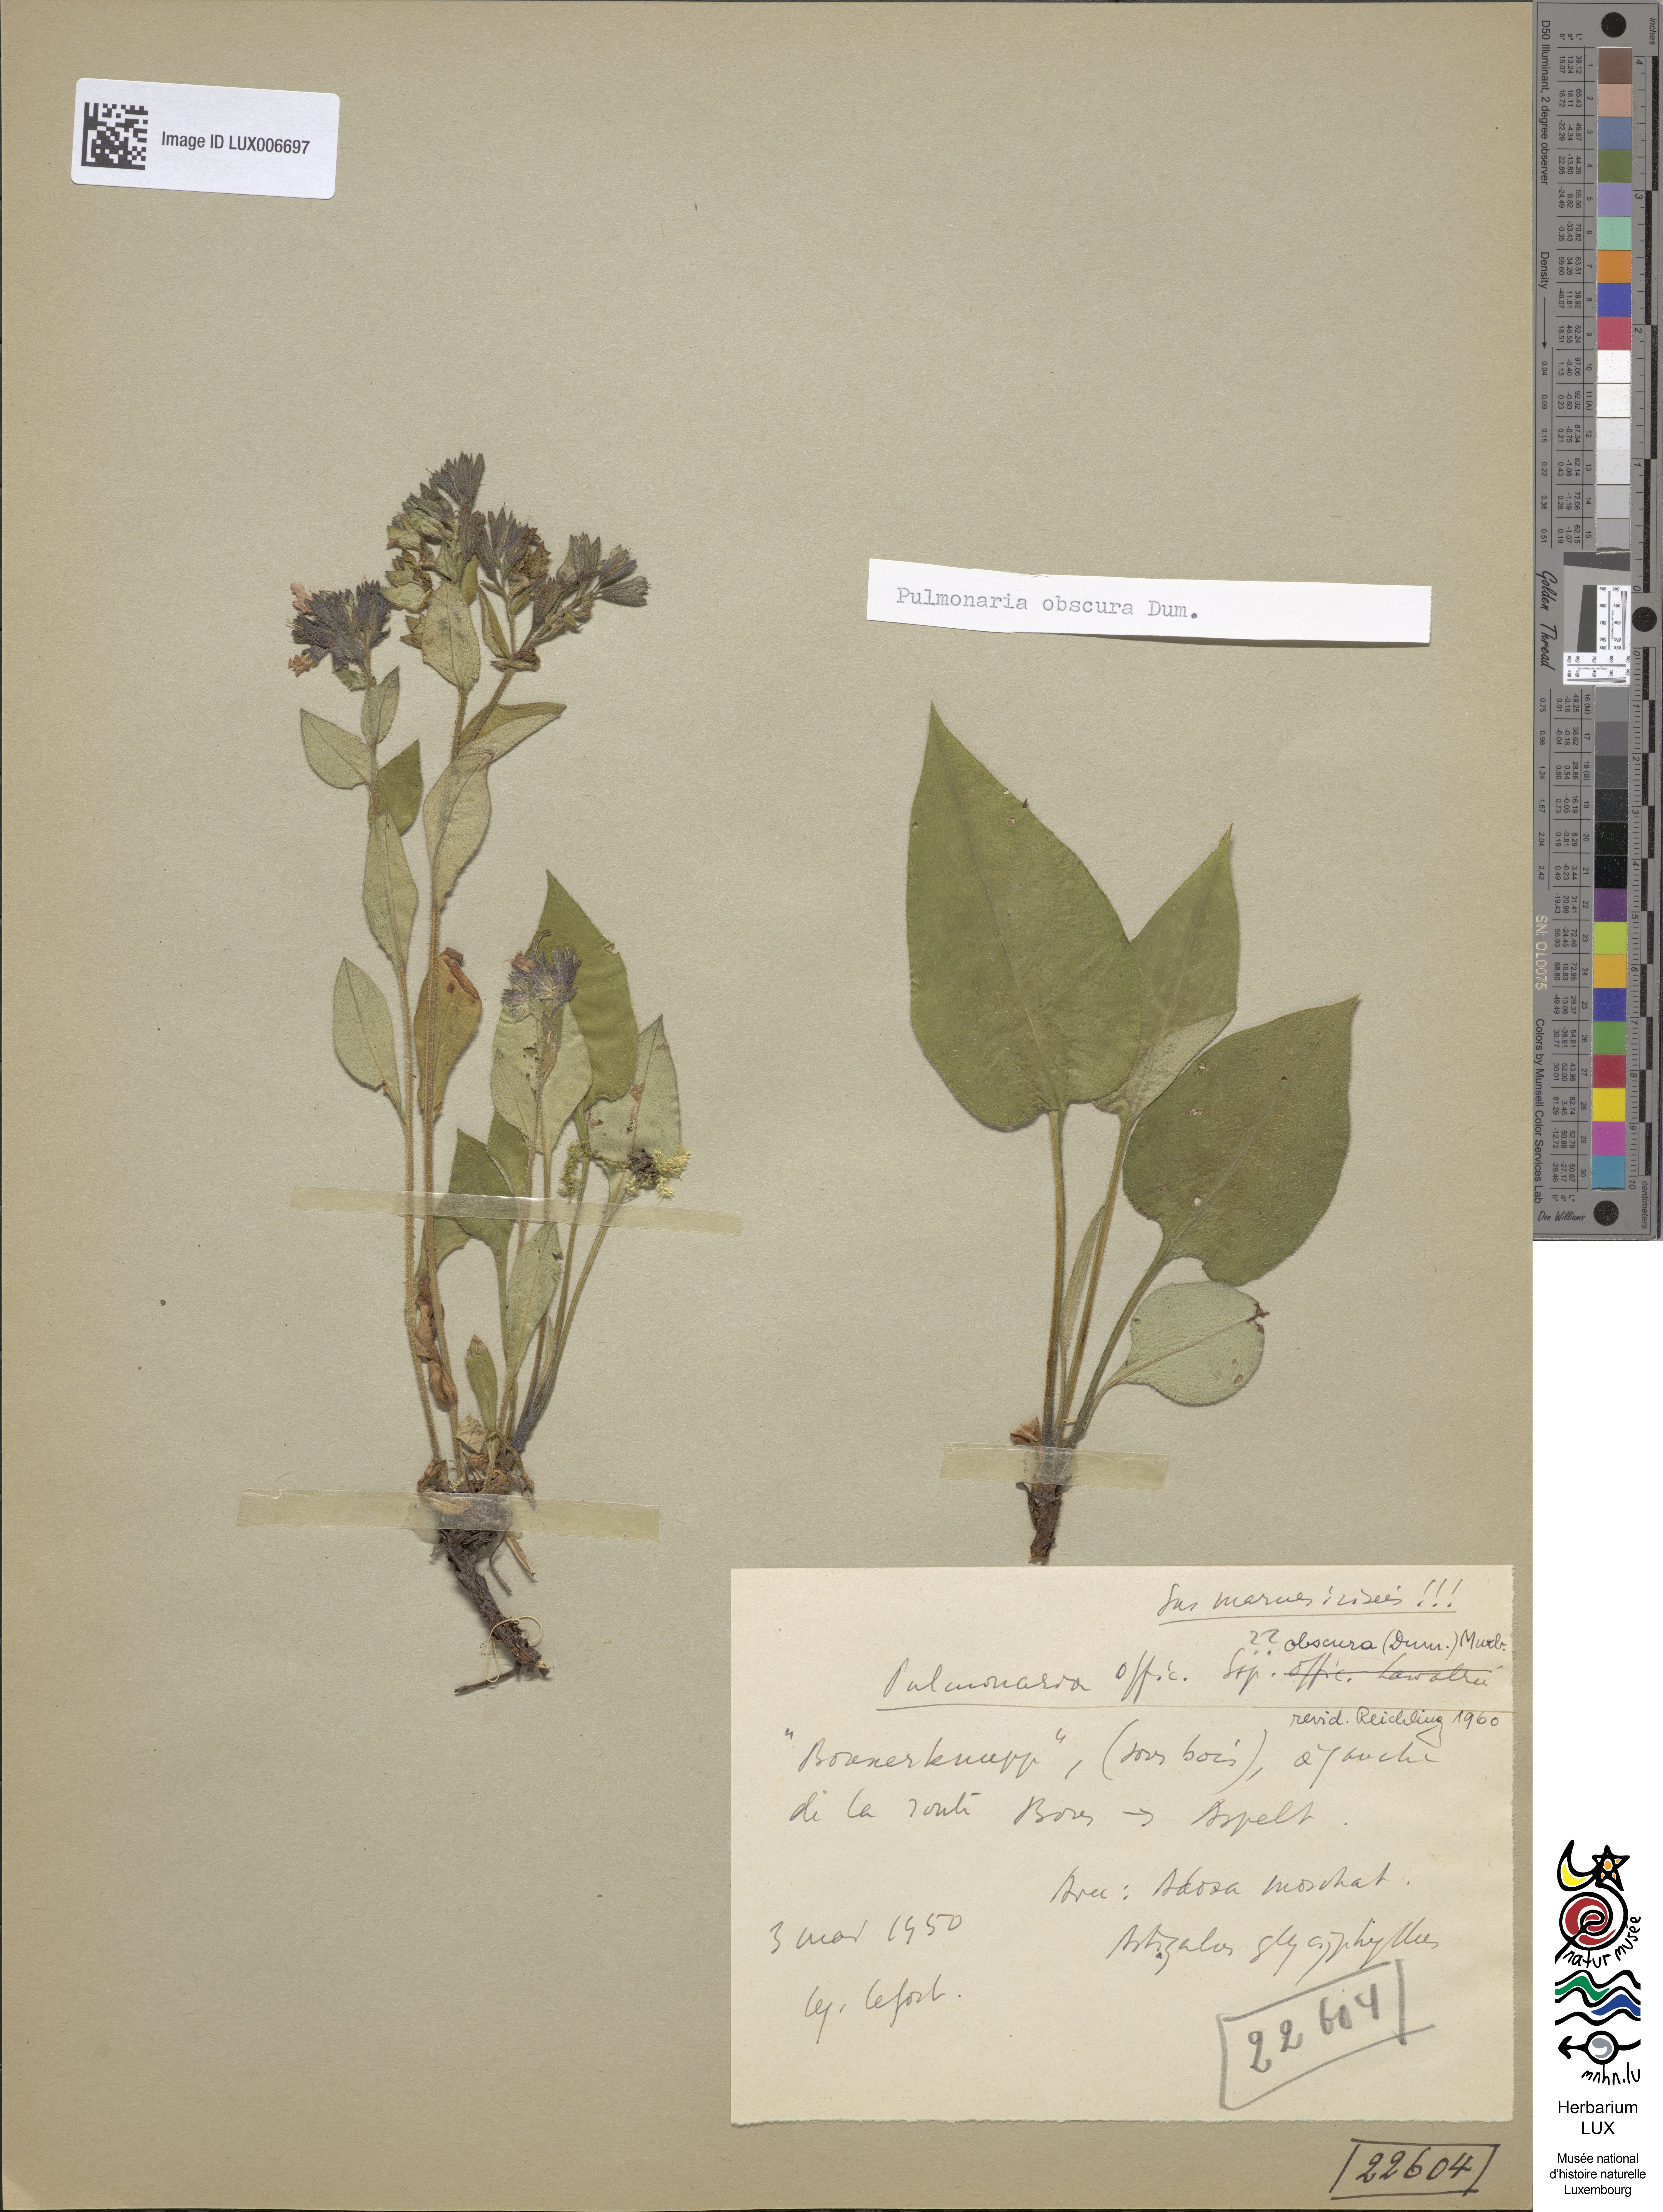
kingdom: Plantae
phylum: Tracheophyta
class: Magnoliopsida
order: Boraginales
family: Boraginaceae
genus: Pulmonaria
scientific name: Pulmonaria officinalis
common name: Lungwort
